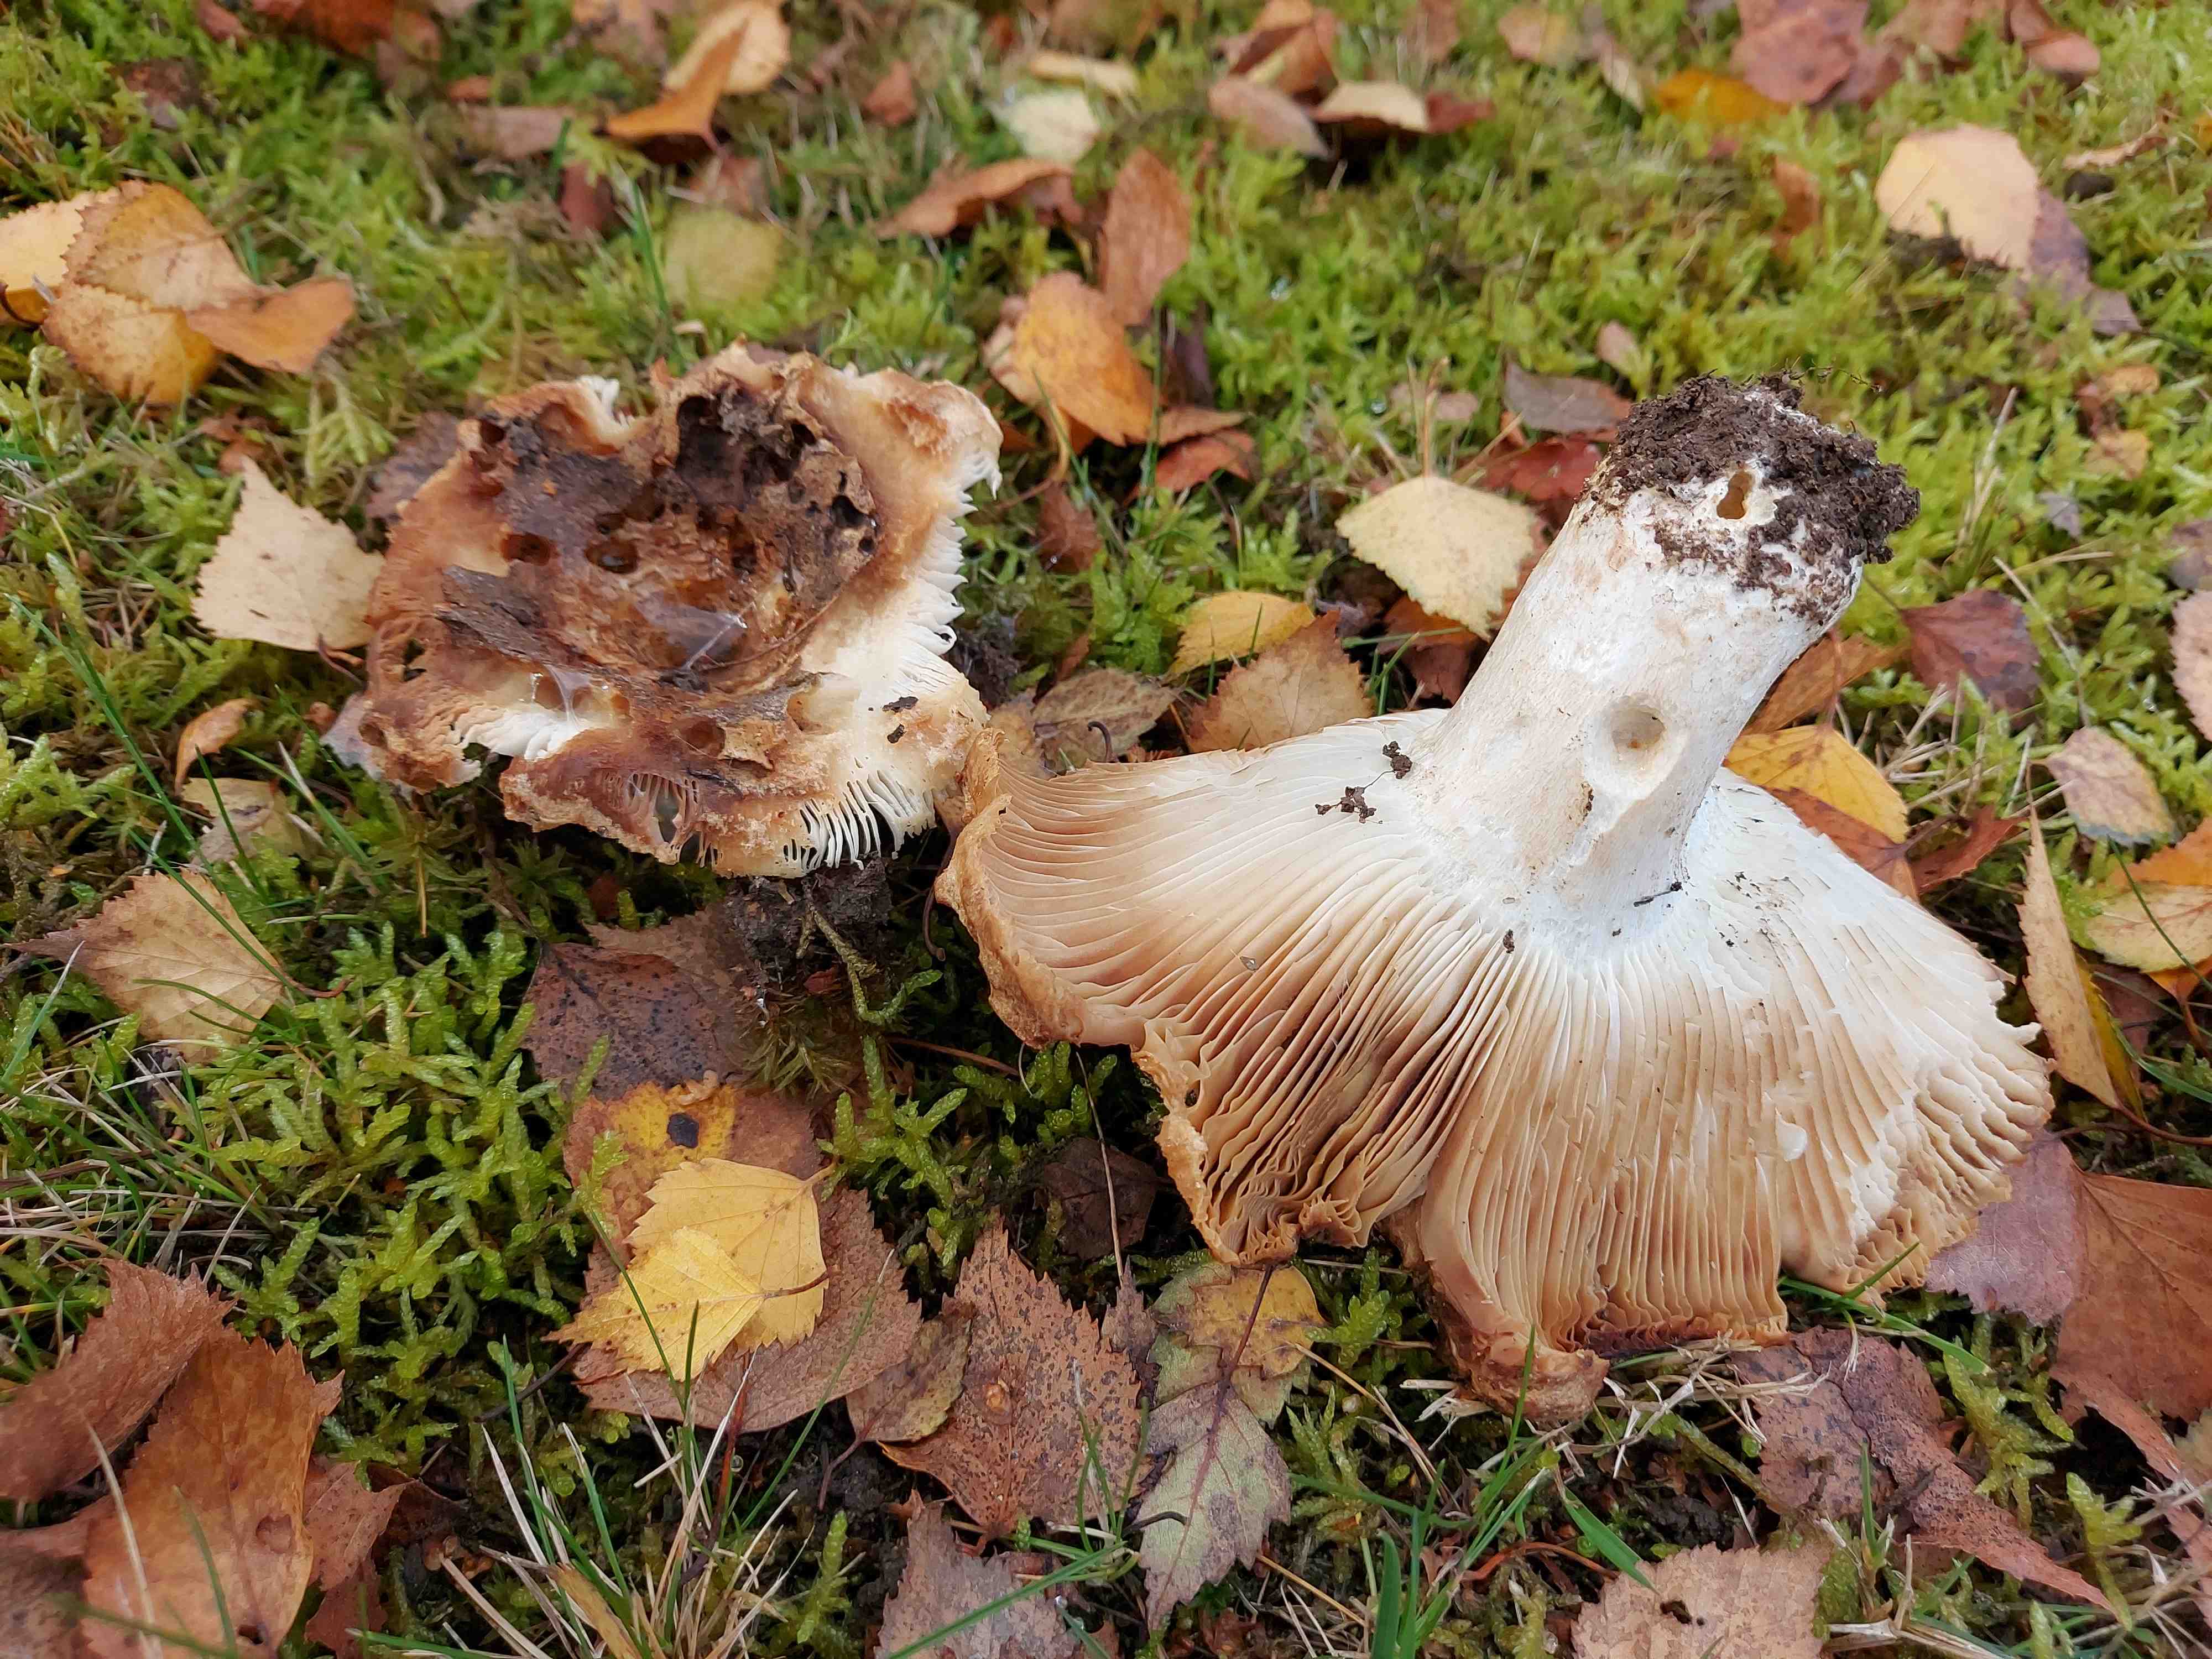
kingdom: Fungi
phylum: Basidiomycota
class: Agaricomycetes
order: Russulales
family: Russulaceae
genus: Russula
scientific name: Russula
